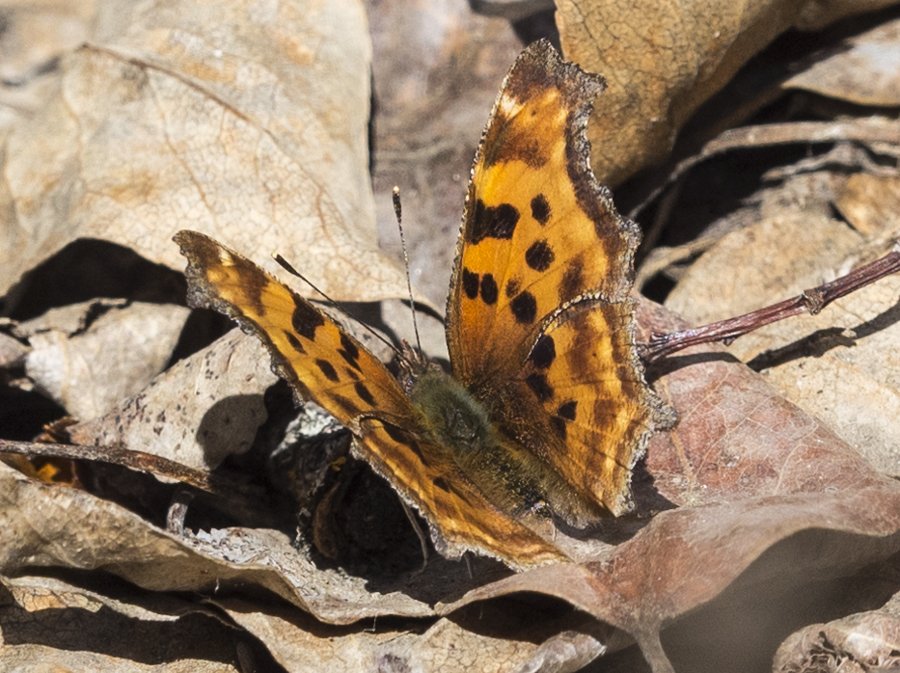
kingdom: Animalia
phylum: Arthropoda
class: Insecta
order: Lepidoptera
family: Nymphalidae
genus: Polygonia
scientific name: Polygonia satyrus
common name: Satyr Comma
